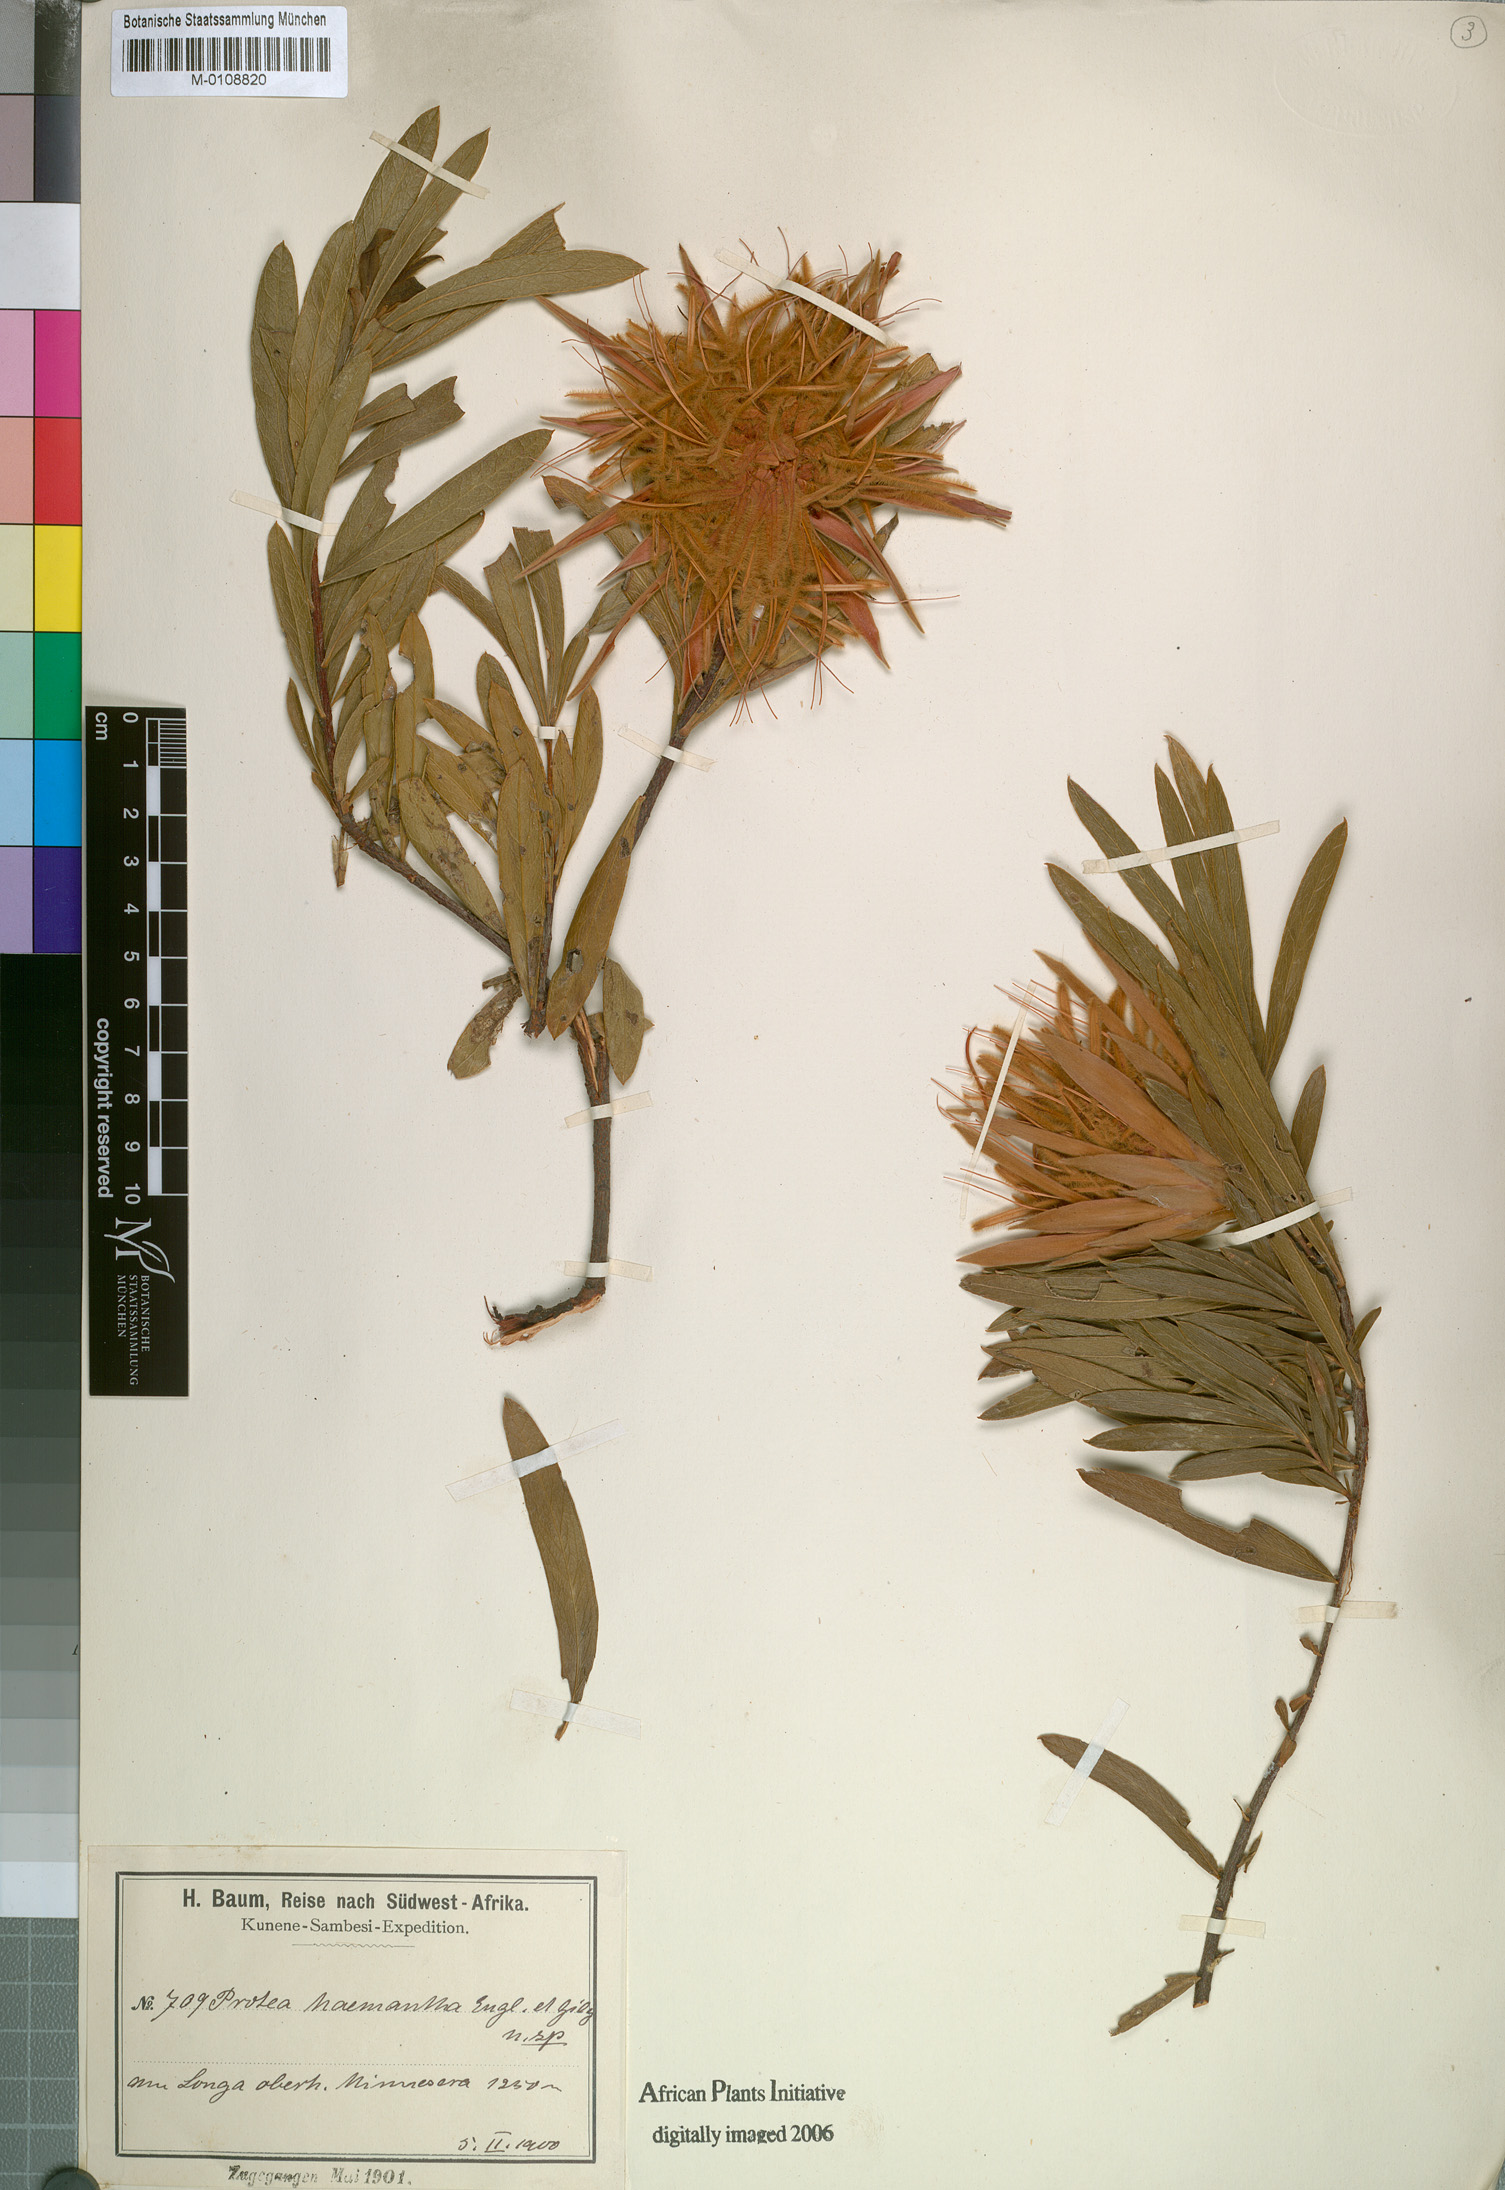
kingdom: Plantae
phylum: Tracheophyta
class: Magnoliopsida
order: Proteales
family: Proteaceae
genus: Protea
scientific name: Protea poggei
